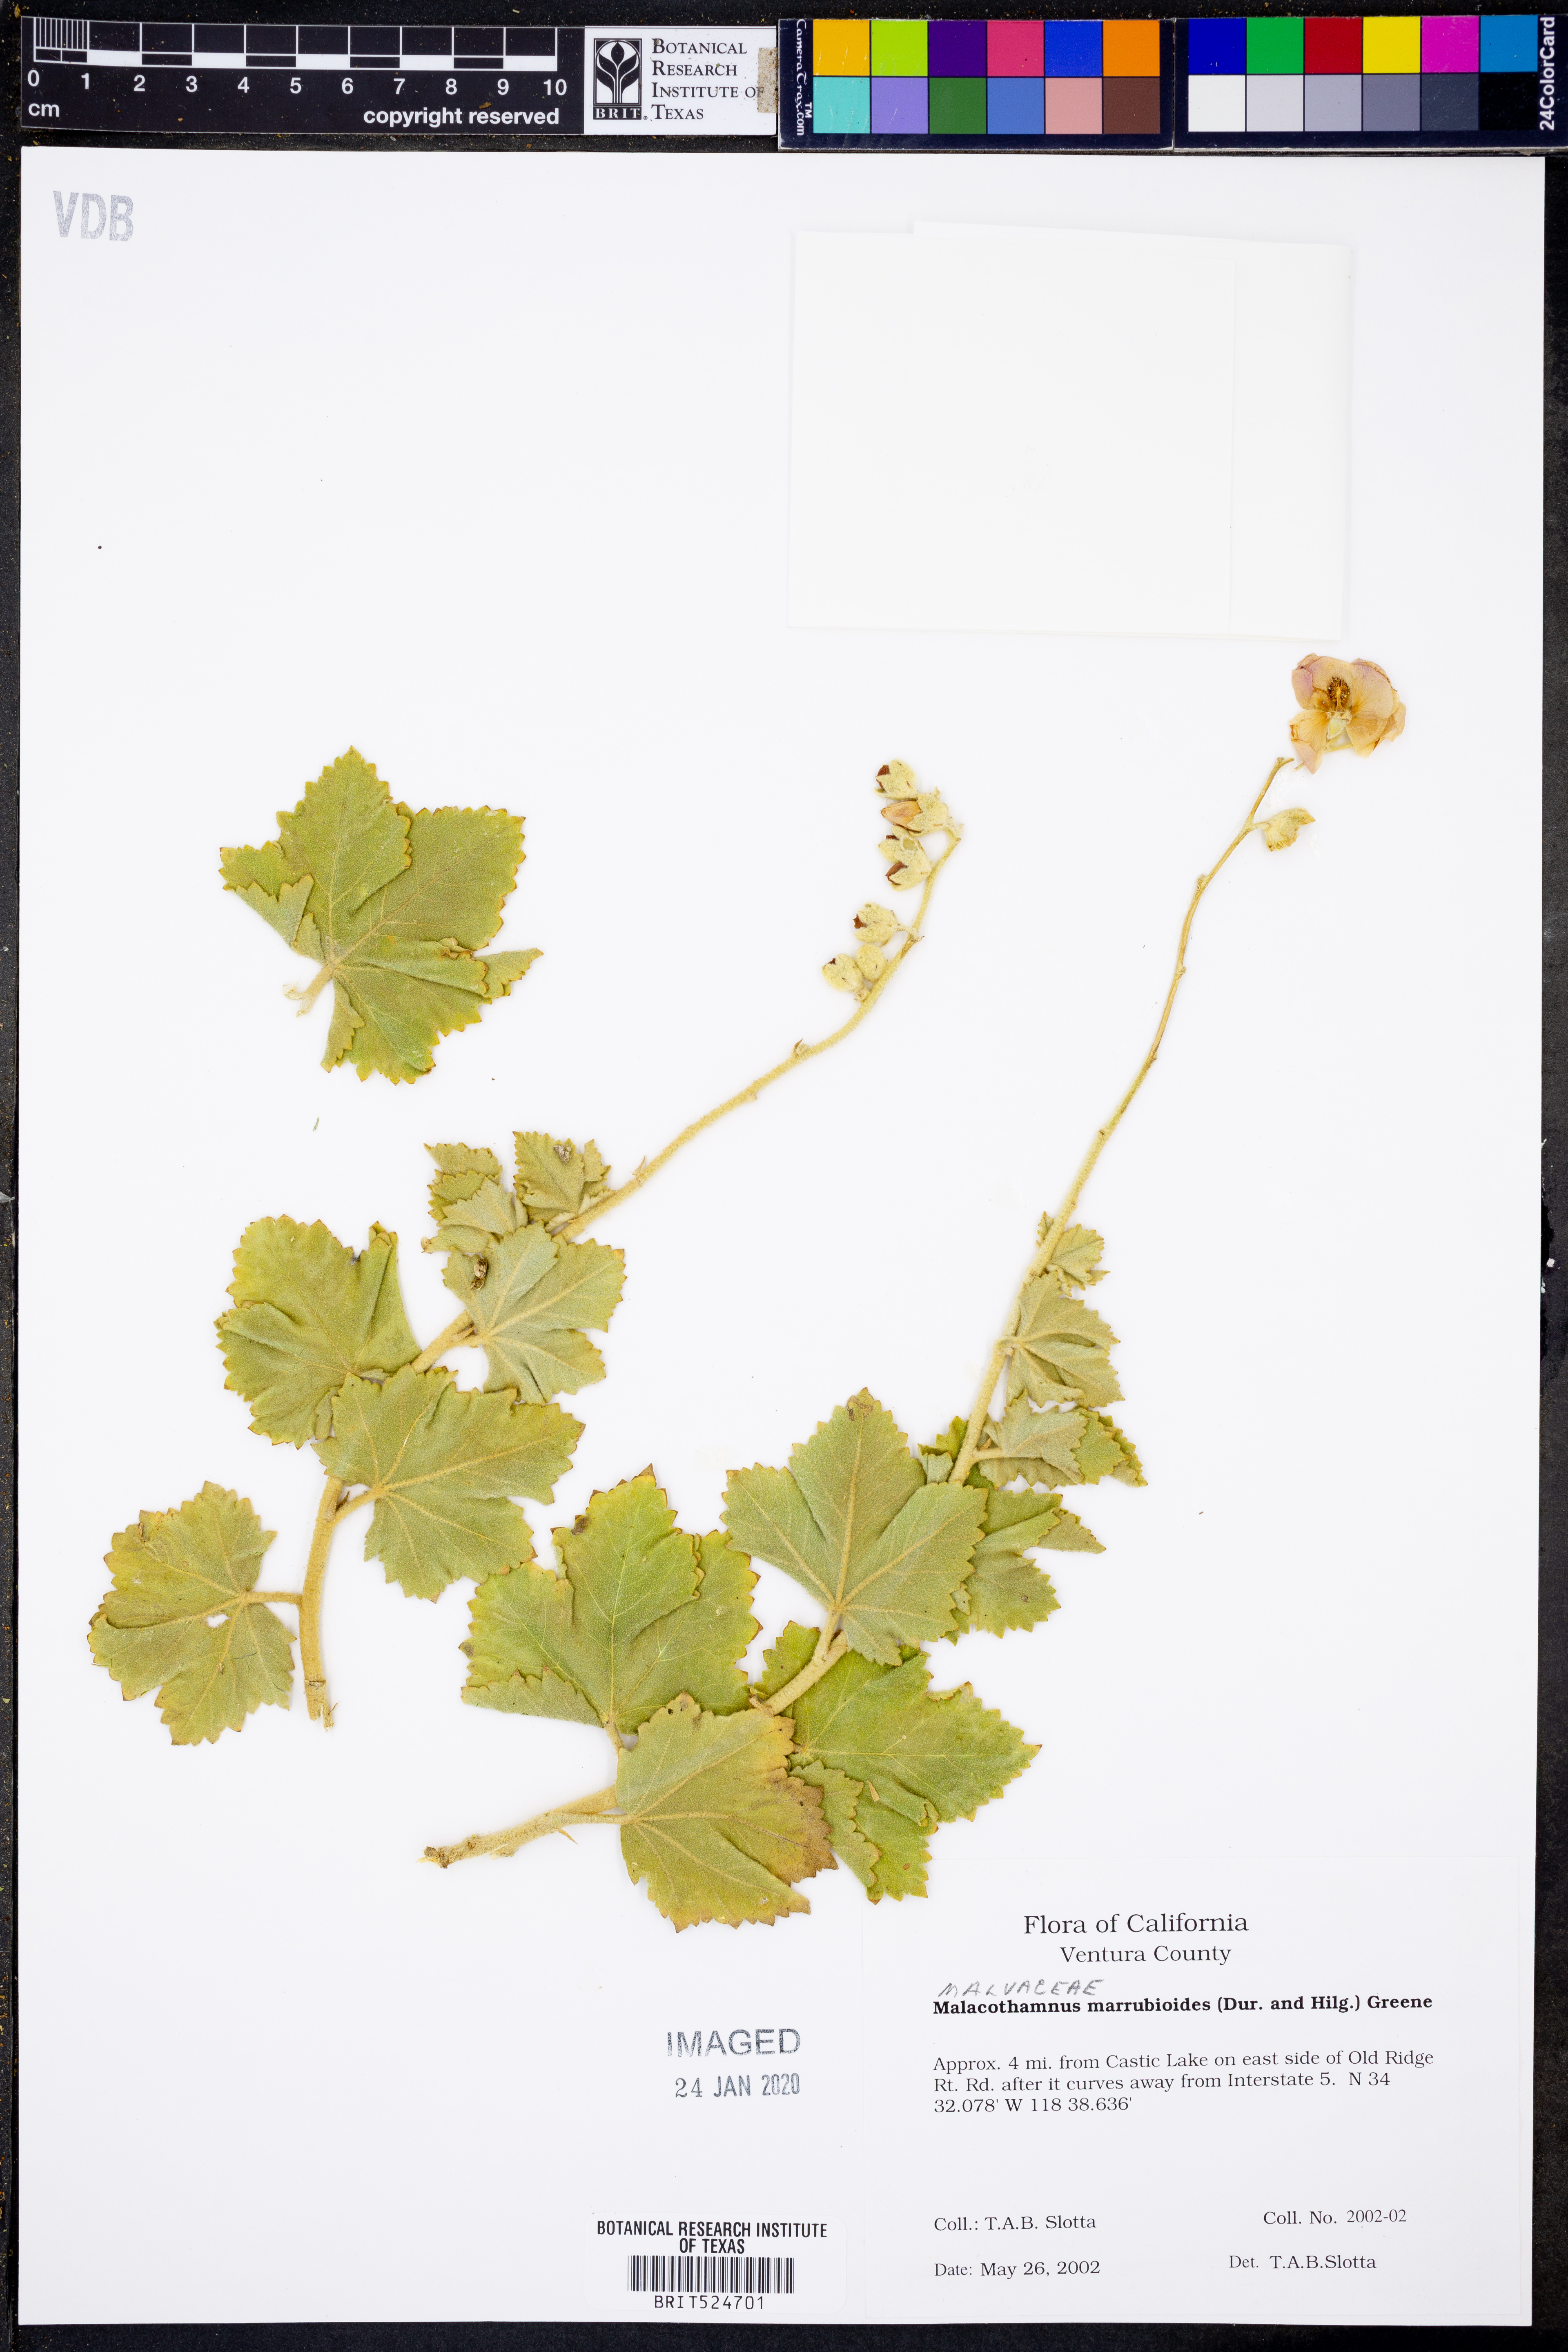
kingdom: Plantae
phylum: Tracheophyta
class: Magnoliopsida
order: Malvales
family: Malvaceae
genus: Malacothamnus
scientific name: Malacothamnus
